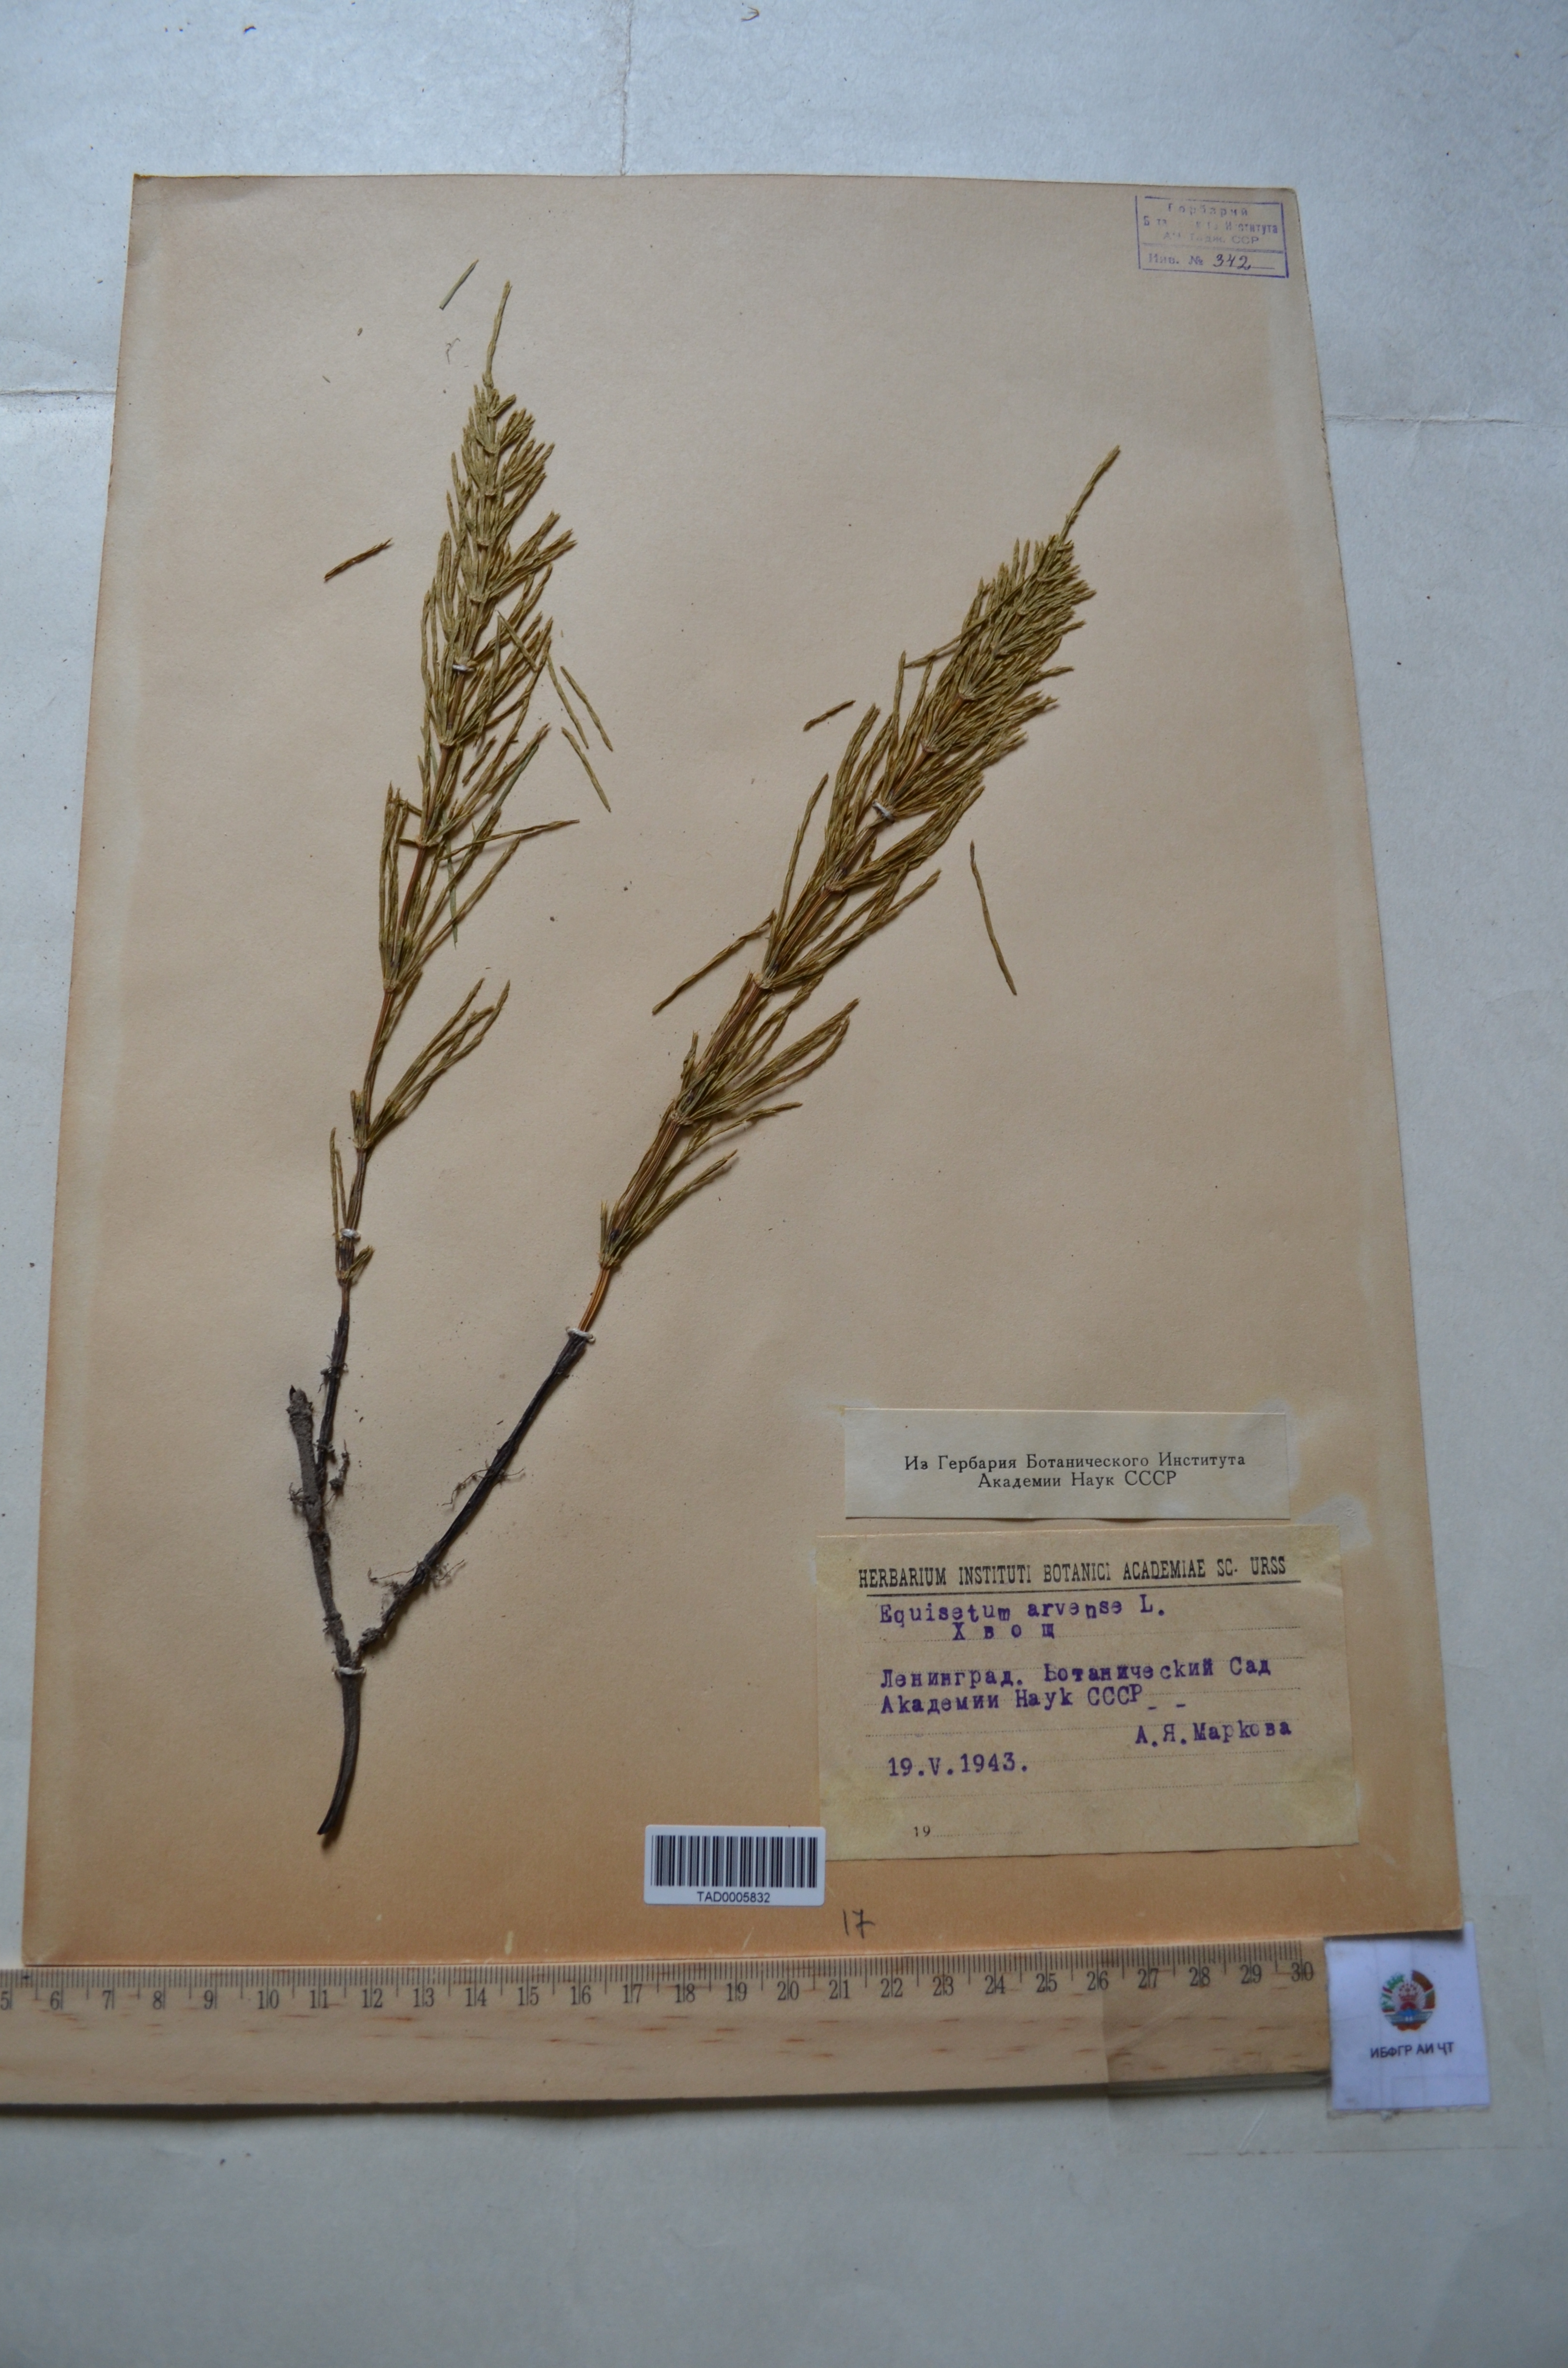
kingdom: Plantae
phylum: Tracheophyta
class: Polypodiopsida
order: Equisetales
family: Equisetaceae
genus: Equisetum
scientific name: Equisetum arvense
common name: Field horsetail
